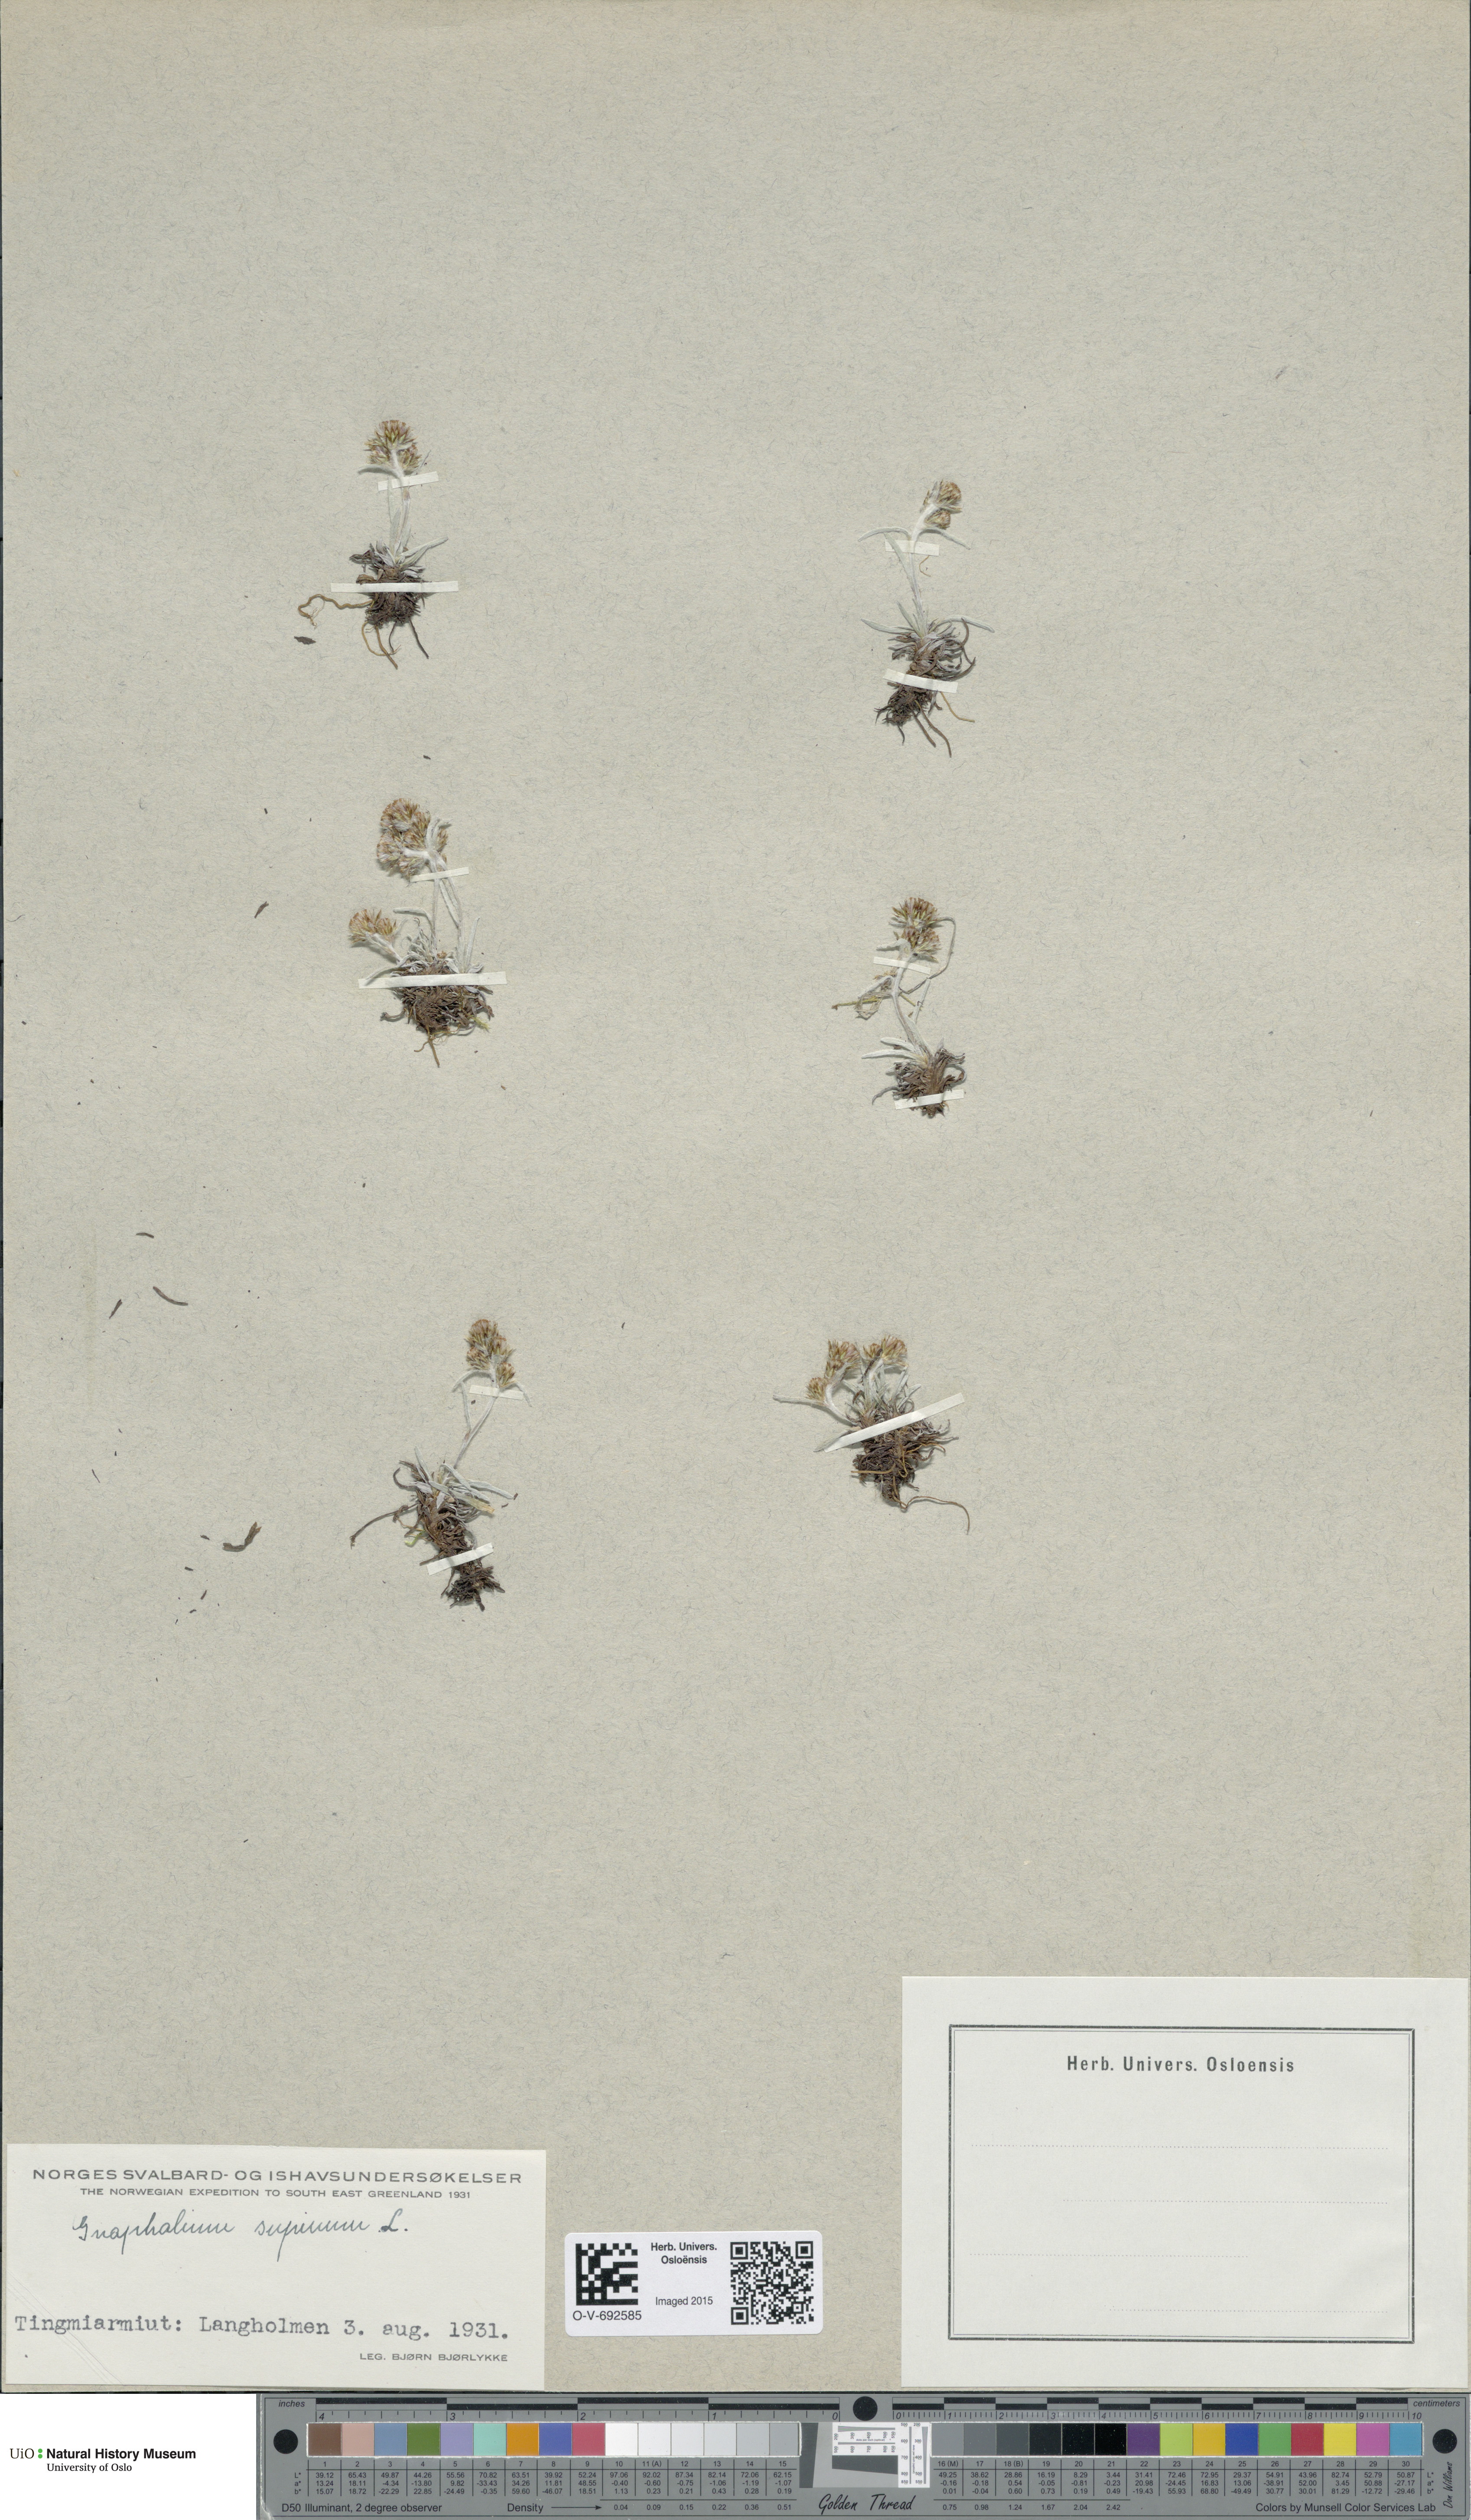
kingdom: Plantae
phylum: Tracheophyta
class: Magnoliopsida
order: Asterales
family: Asteraceae
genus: Omalotheca
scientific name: Omalotheca supina
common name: Alpine arctic-cudweed
